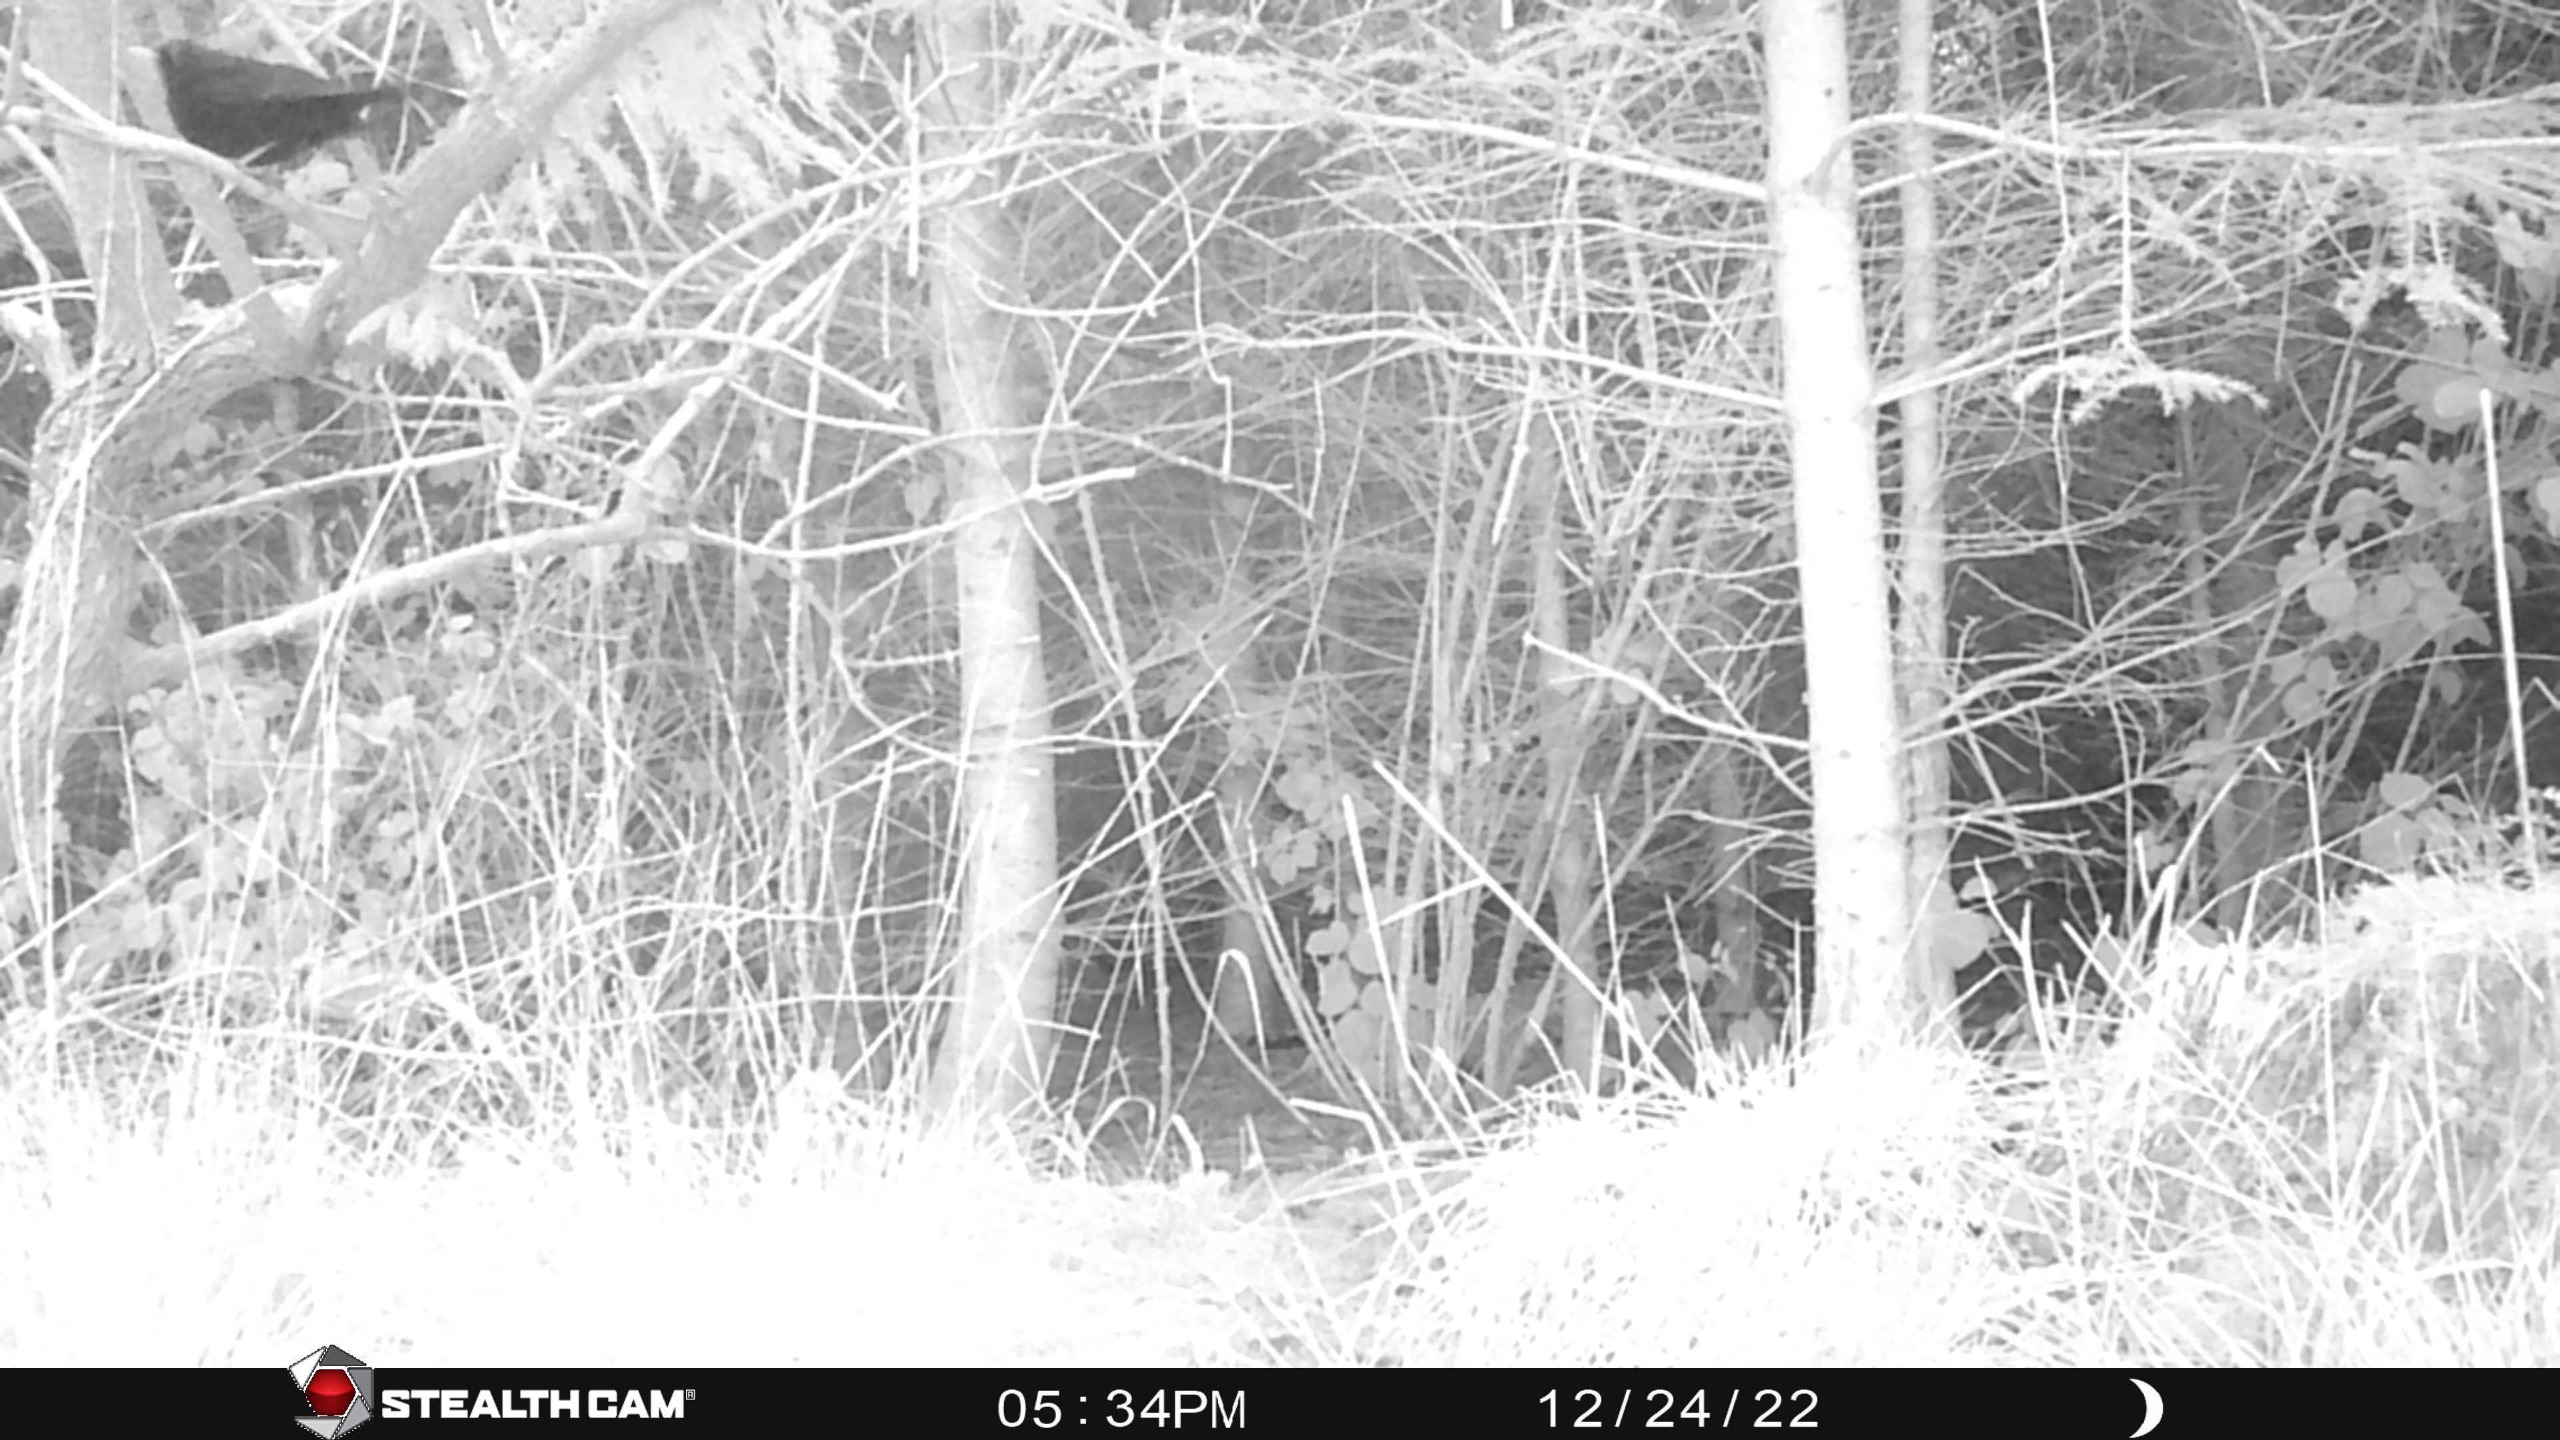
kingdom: Animalia
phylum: Chordata
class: Aves
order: Passeriformes
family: Turdidae
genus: Turdus
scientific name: Turdus merula
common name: Solsort
